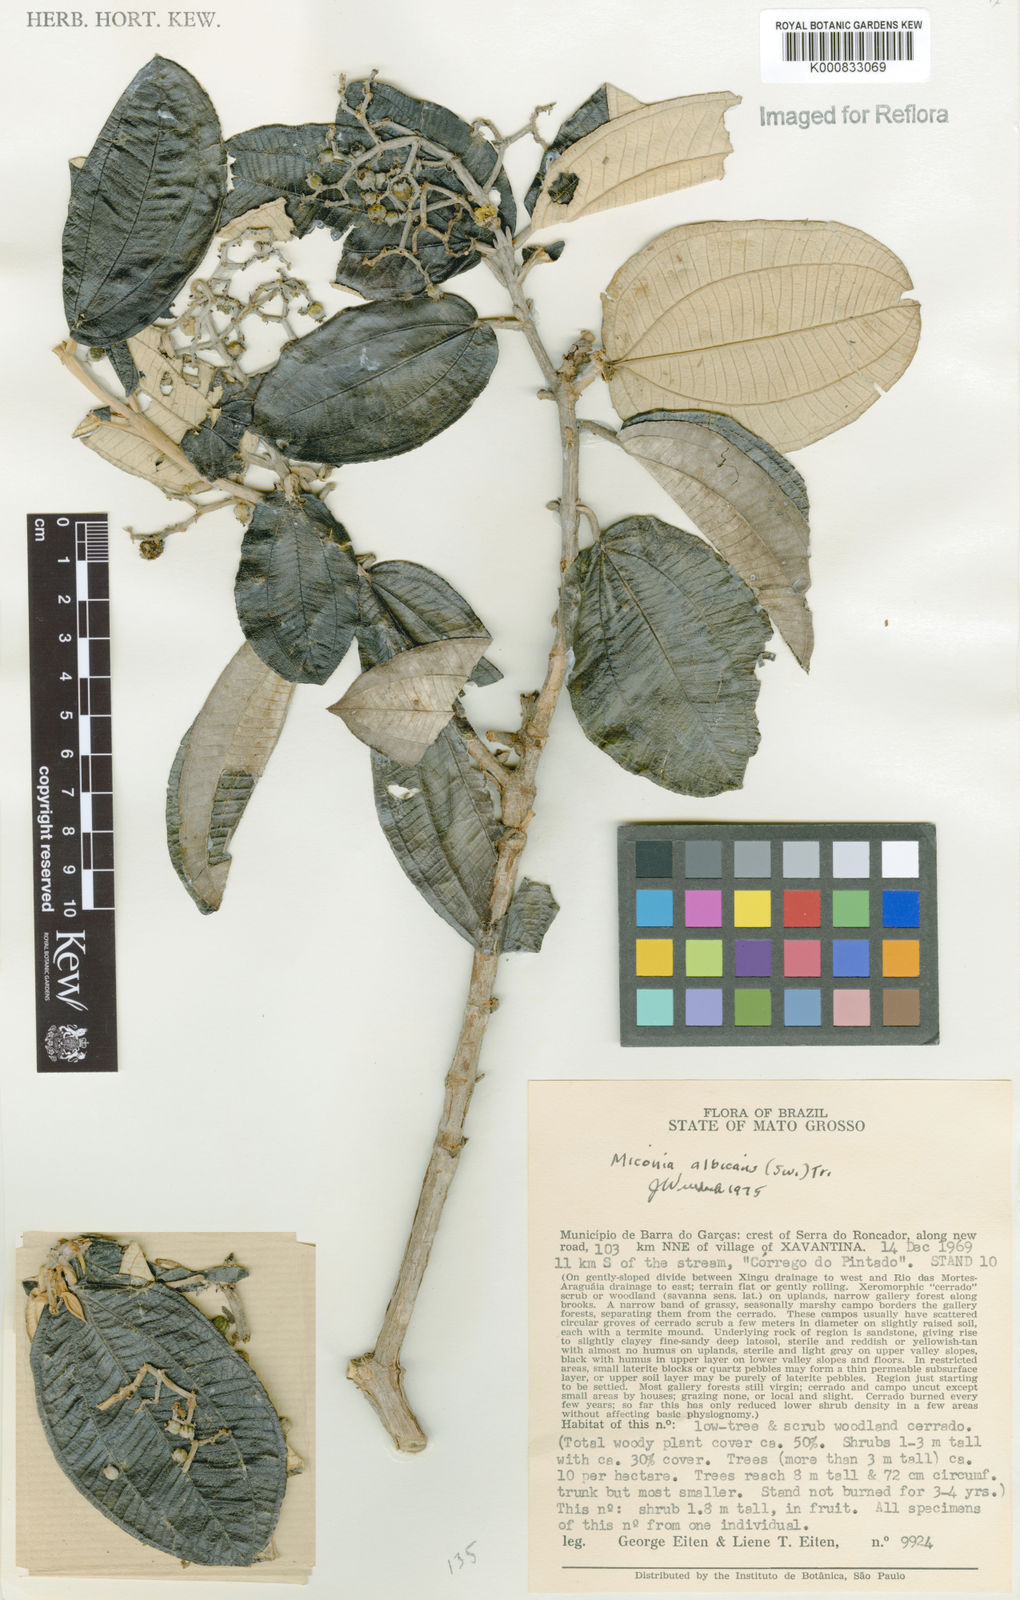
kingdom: Plantae
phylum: Tracheophyta
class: Magnoliopsida
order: Myrtales
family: Melastomataceae
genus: Miconia
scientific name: Miconia albicans
